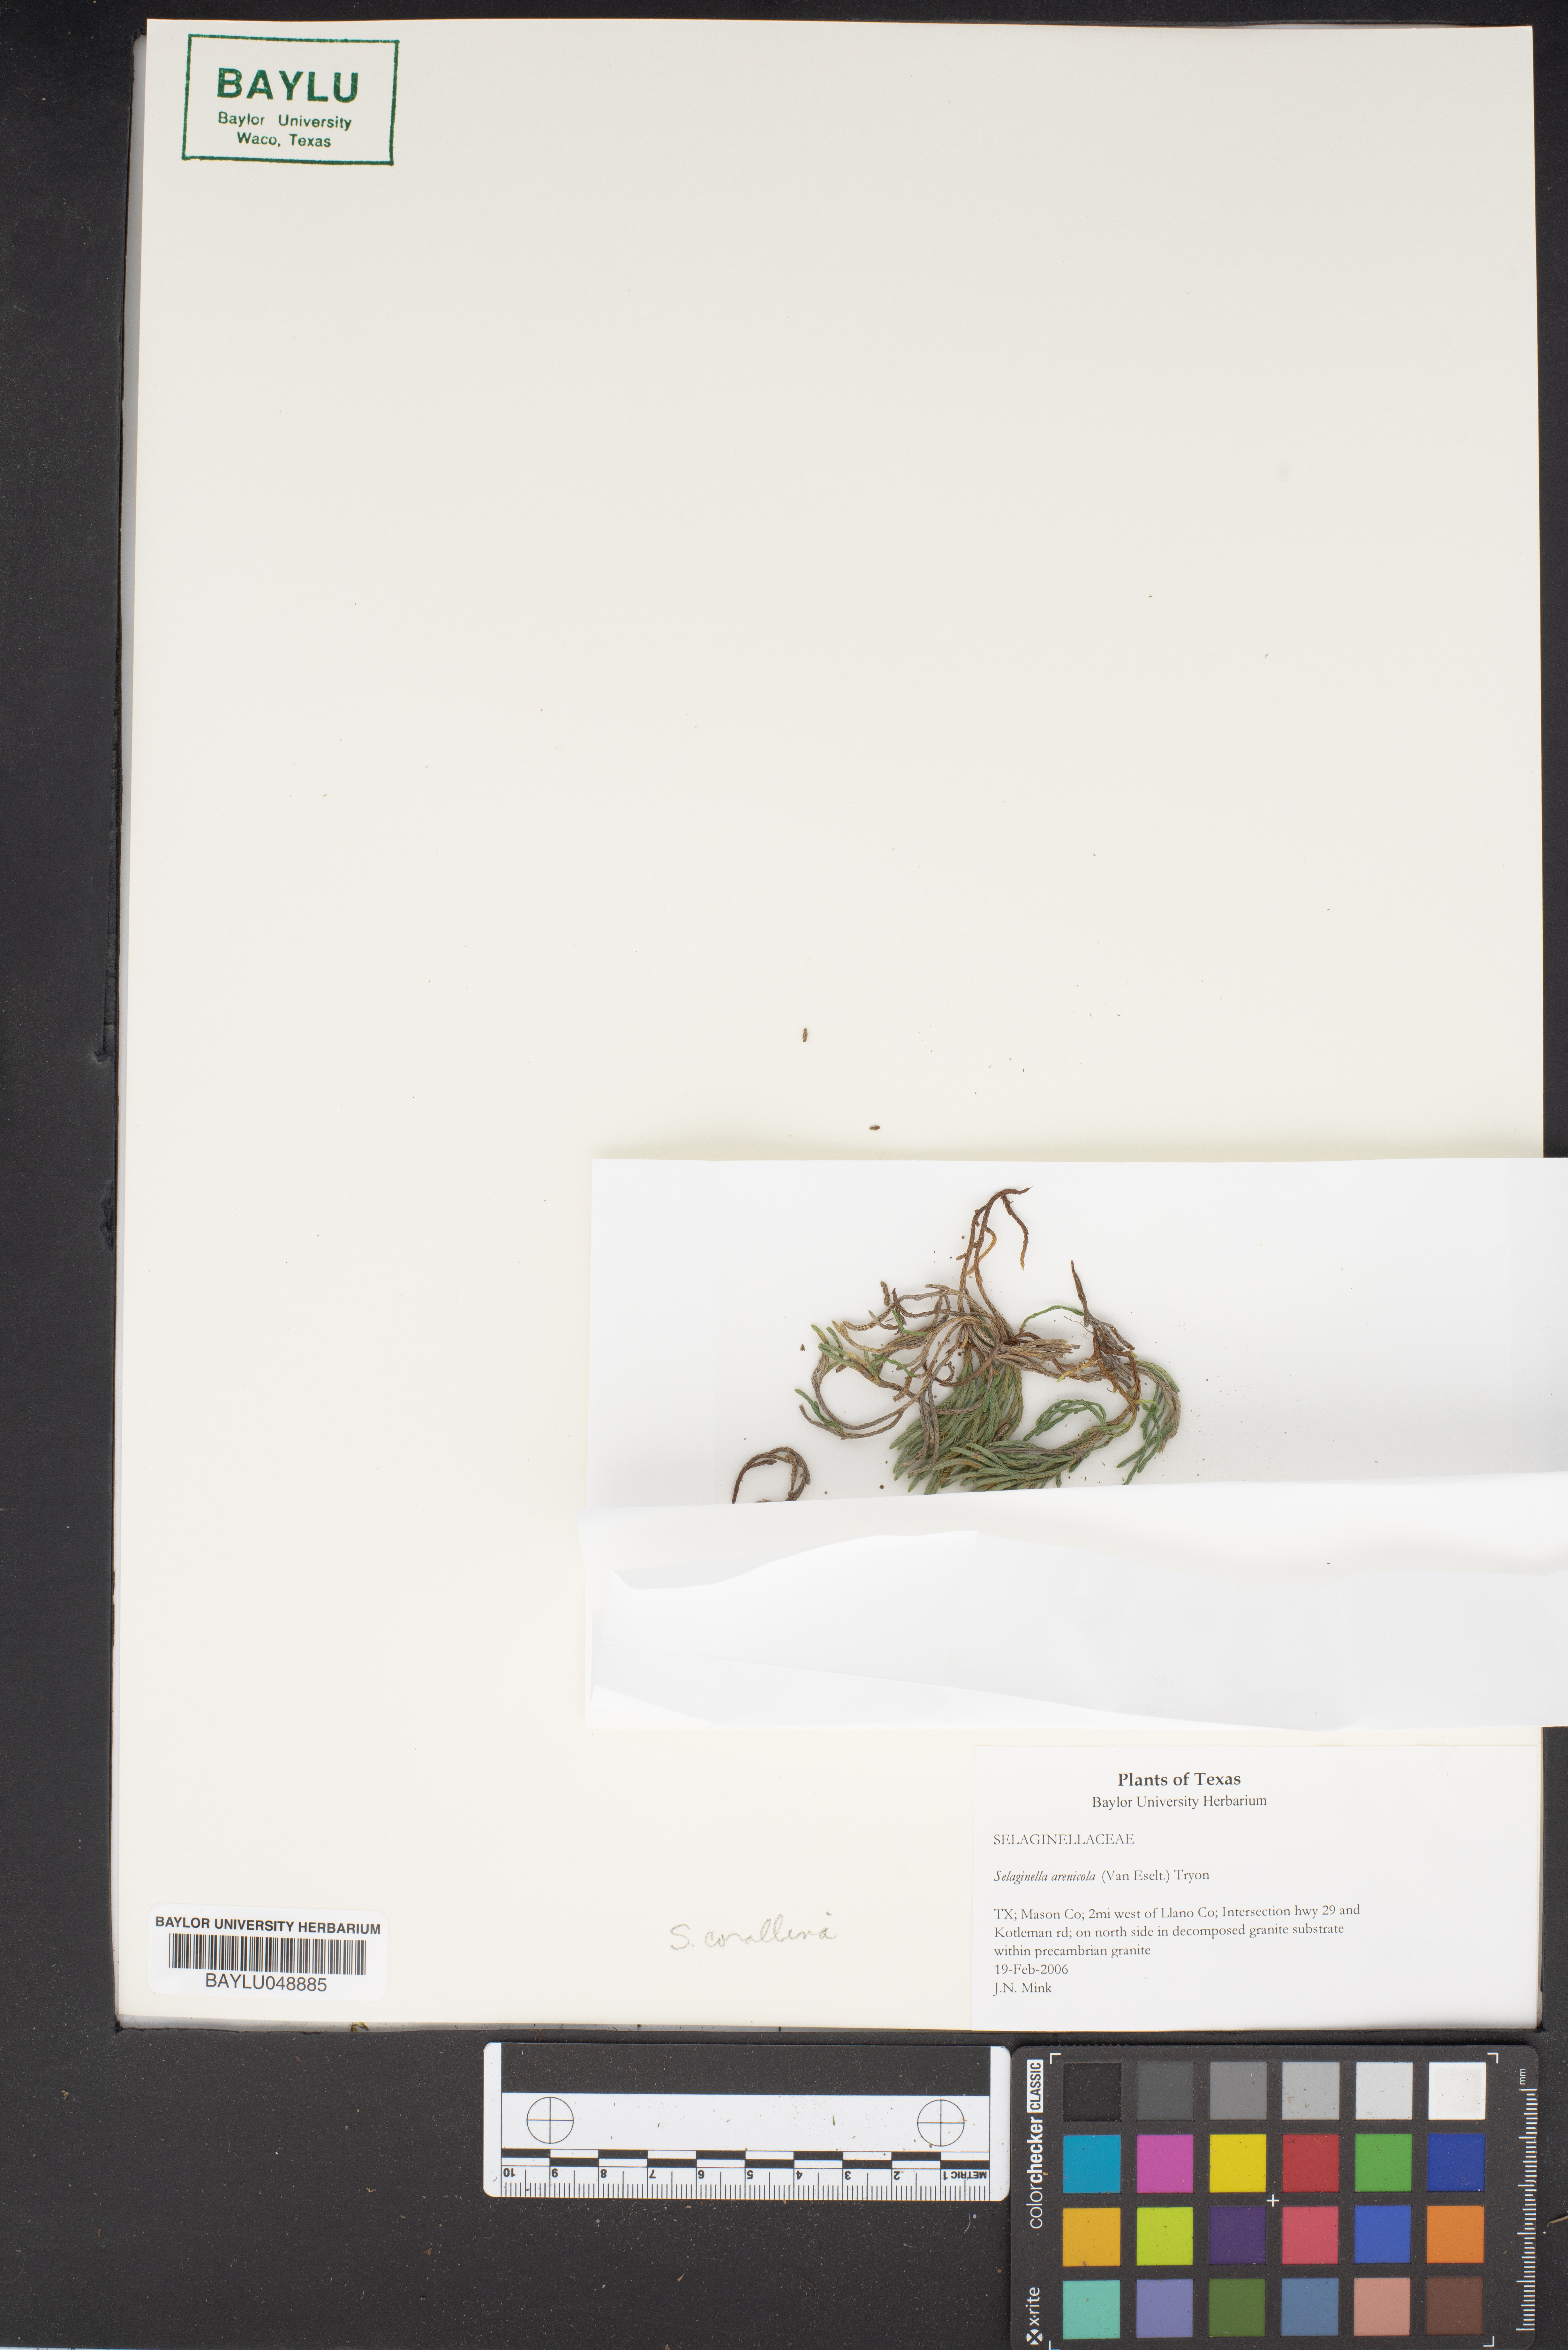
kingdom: Plantae
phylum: Tracheophyta
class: Lycopodiopsida
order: Selaginellales
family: Selaginellaceae
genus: Selaginella
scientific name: Selaginella arenicola
